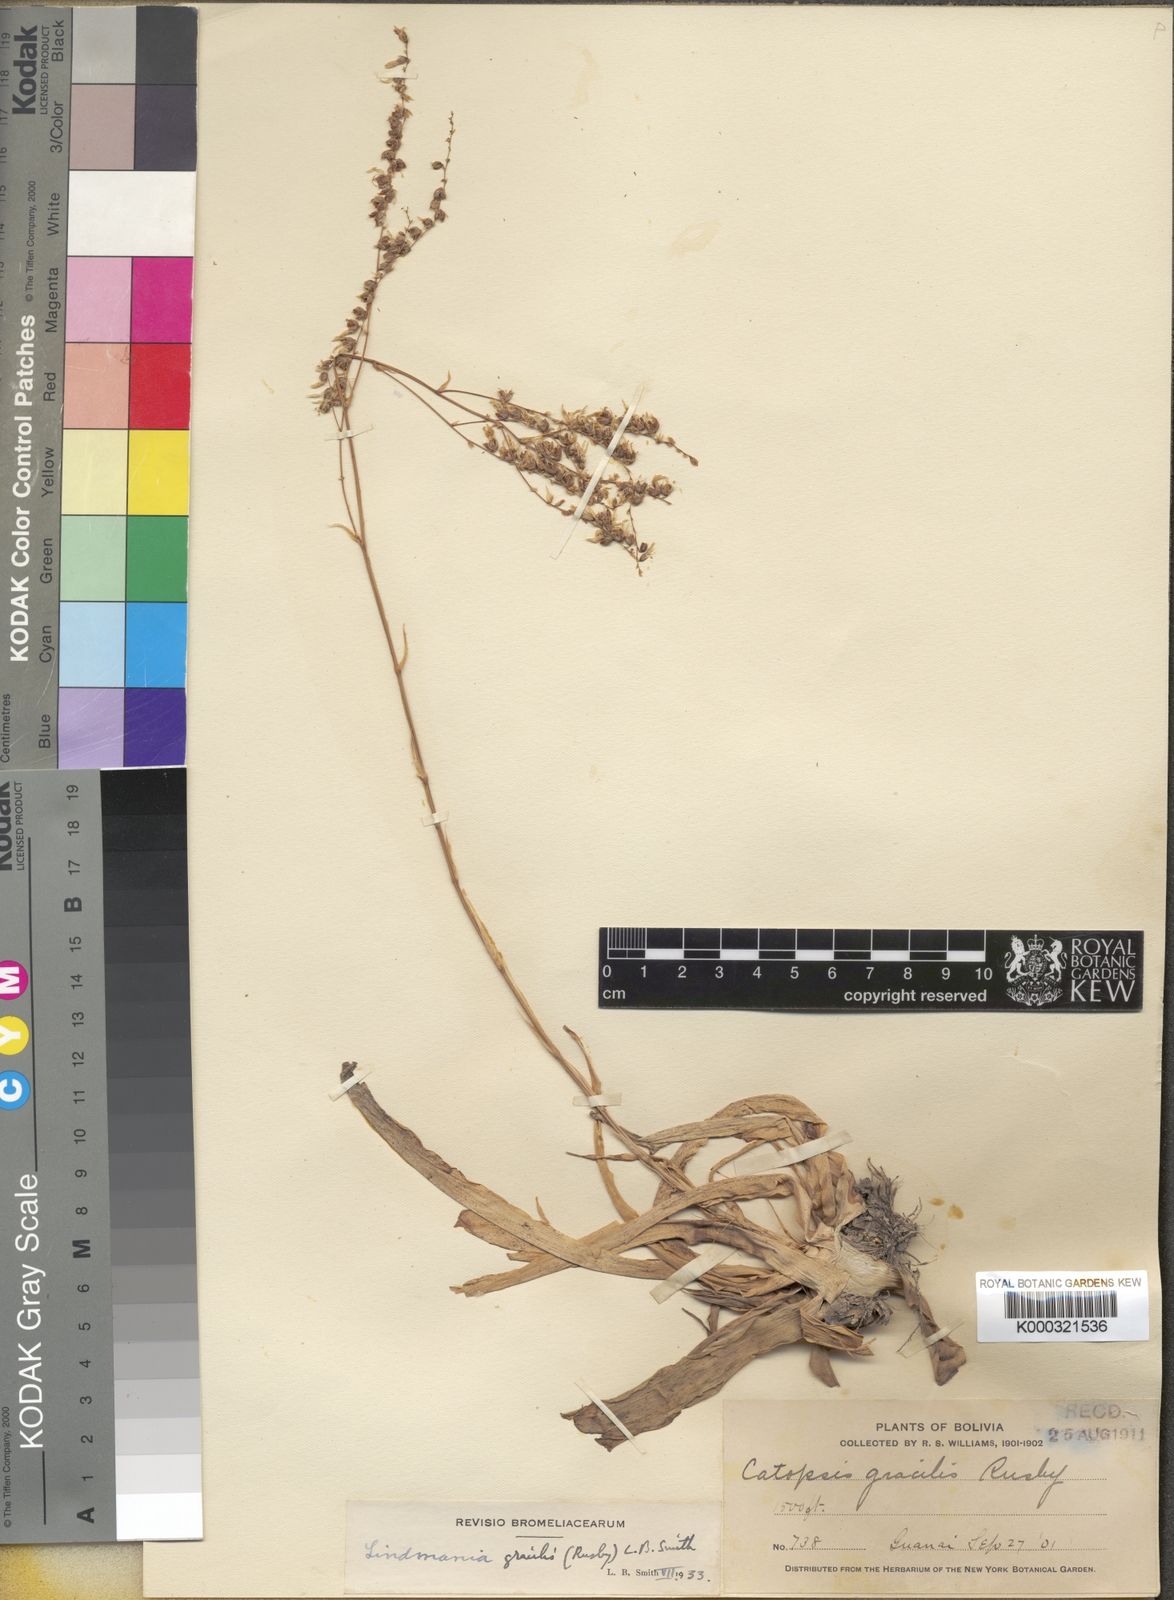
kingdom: Plantae
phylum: Tracheophyta
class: Liliopsida
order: Poales
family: Bromeliaceae
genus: Fosterella
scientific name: Fosterella gracilis
